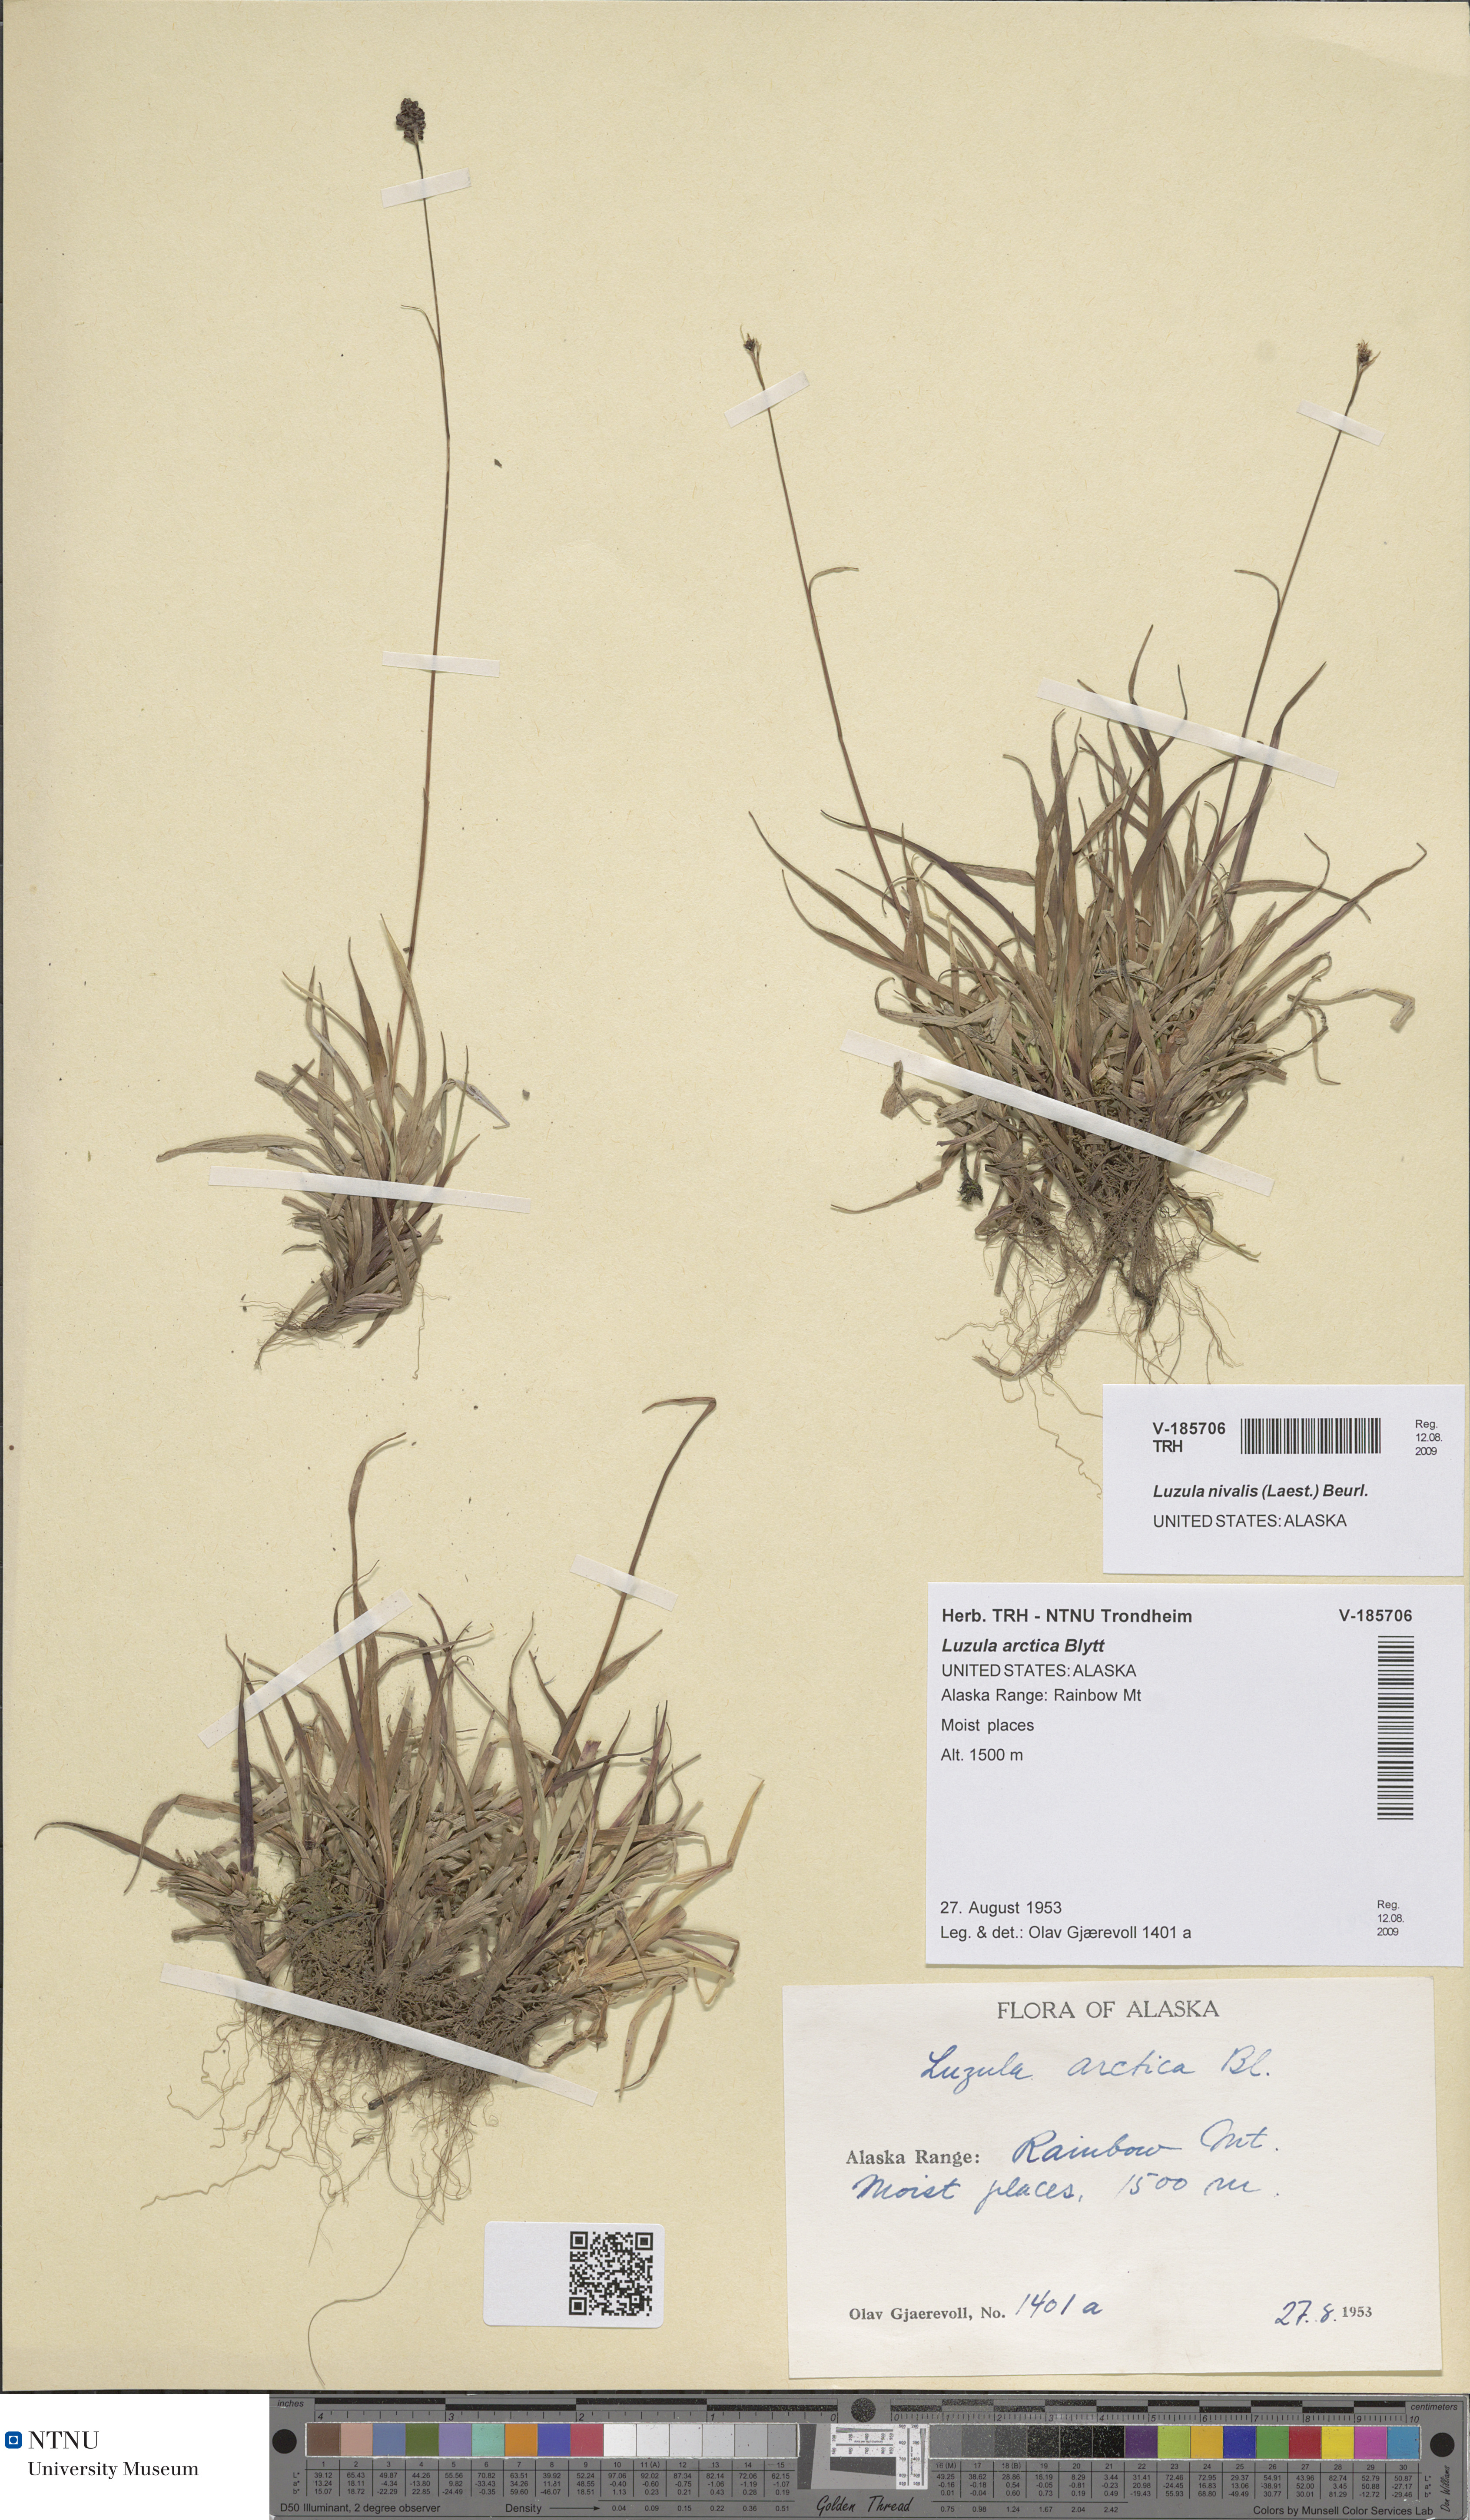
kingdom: Plantae
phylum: Tracheophyta
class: Liliopsida
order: Poales
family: Juncaceae
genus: Luzula
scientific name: Luzula nivalis
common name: Arctic woodrush
